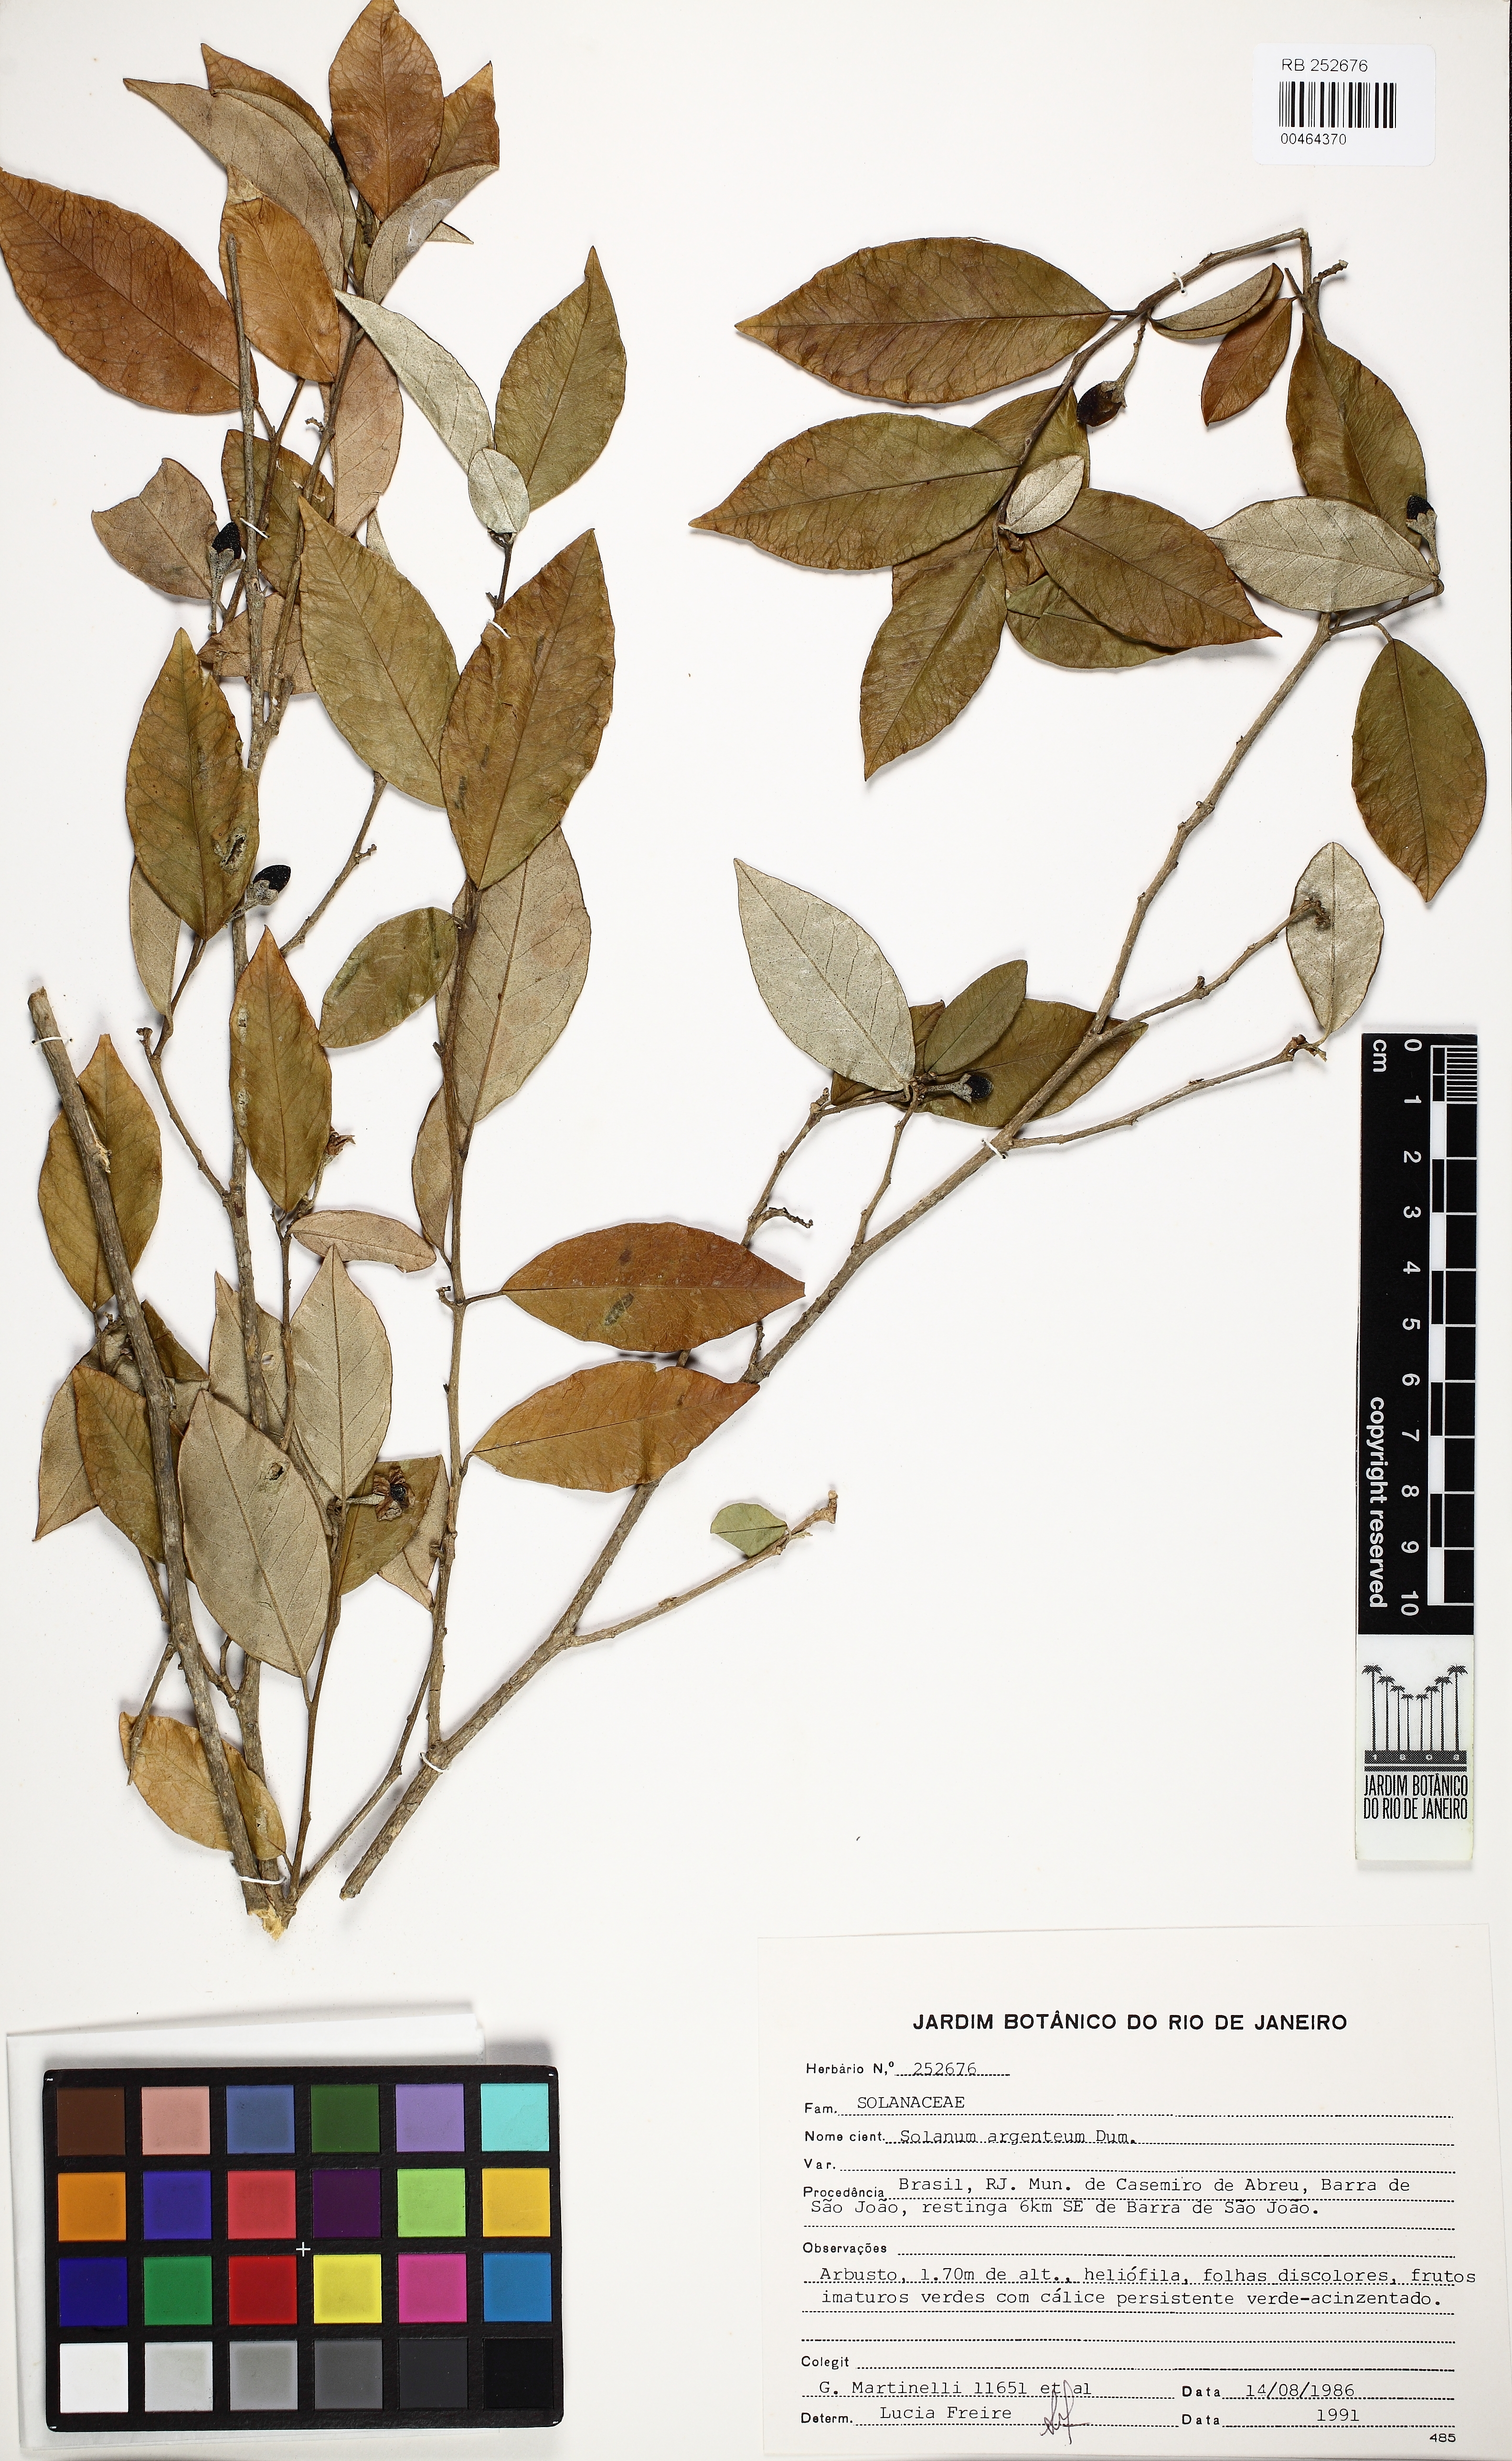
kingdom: Plantae
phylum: Tracheophyta
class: Magnoliopsida
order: Solanales
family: Solanaceae
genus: Solanum
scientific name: Solanum swartzianum
